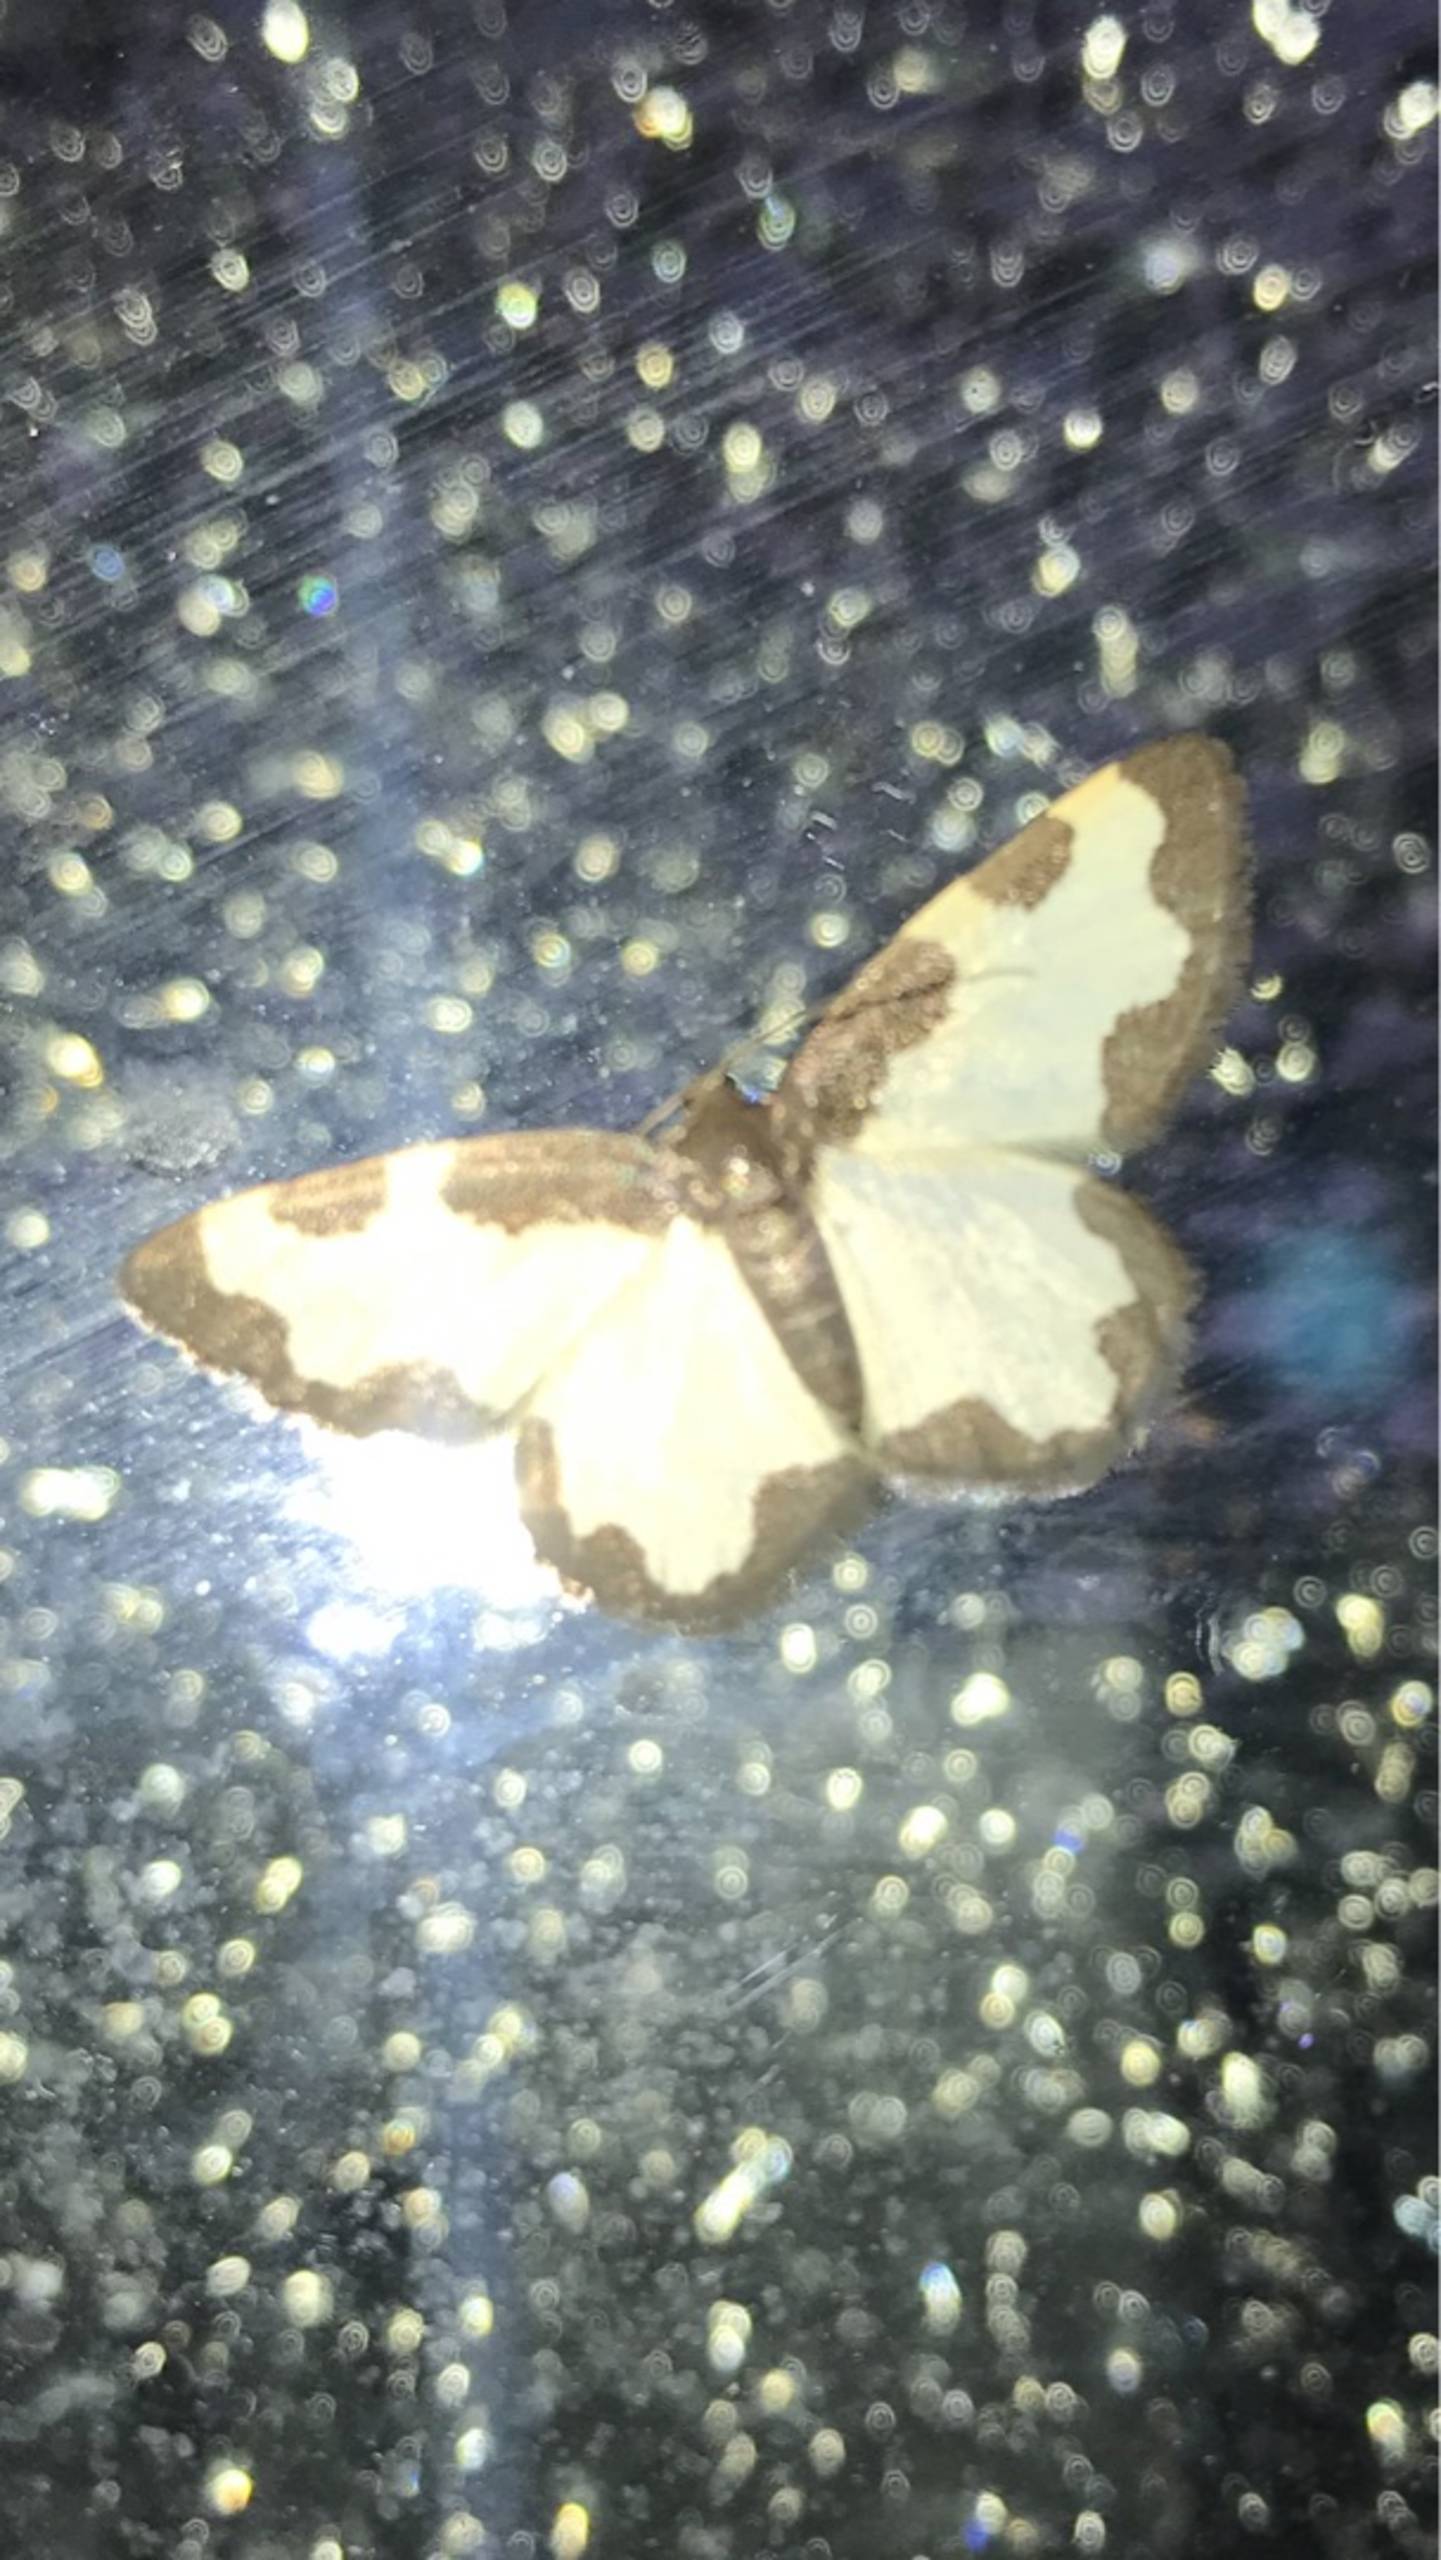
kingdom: Animalia
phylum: Arthropoda
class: Insecta
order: Lepidoptera
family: Geometridae
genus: Lomaspilis
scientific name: Lomaspilis marginata
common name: Sortrandet måler
